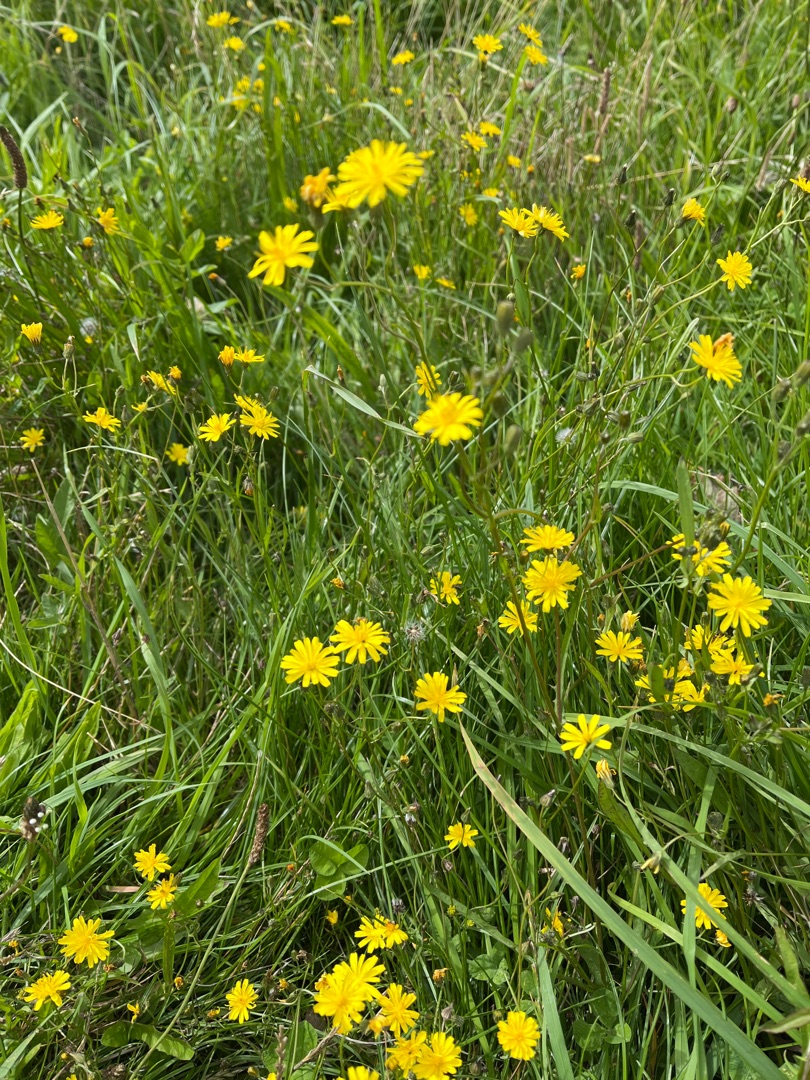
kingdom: Plantae
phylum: Tracheophyta
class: Magnoliopsida
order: Asterales
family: Asteraceae
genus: Crepis
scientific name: Crepis capillaris
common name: Grøn høgeskæg
